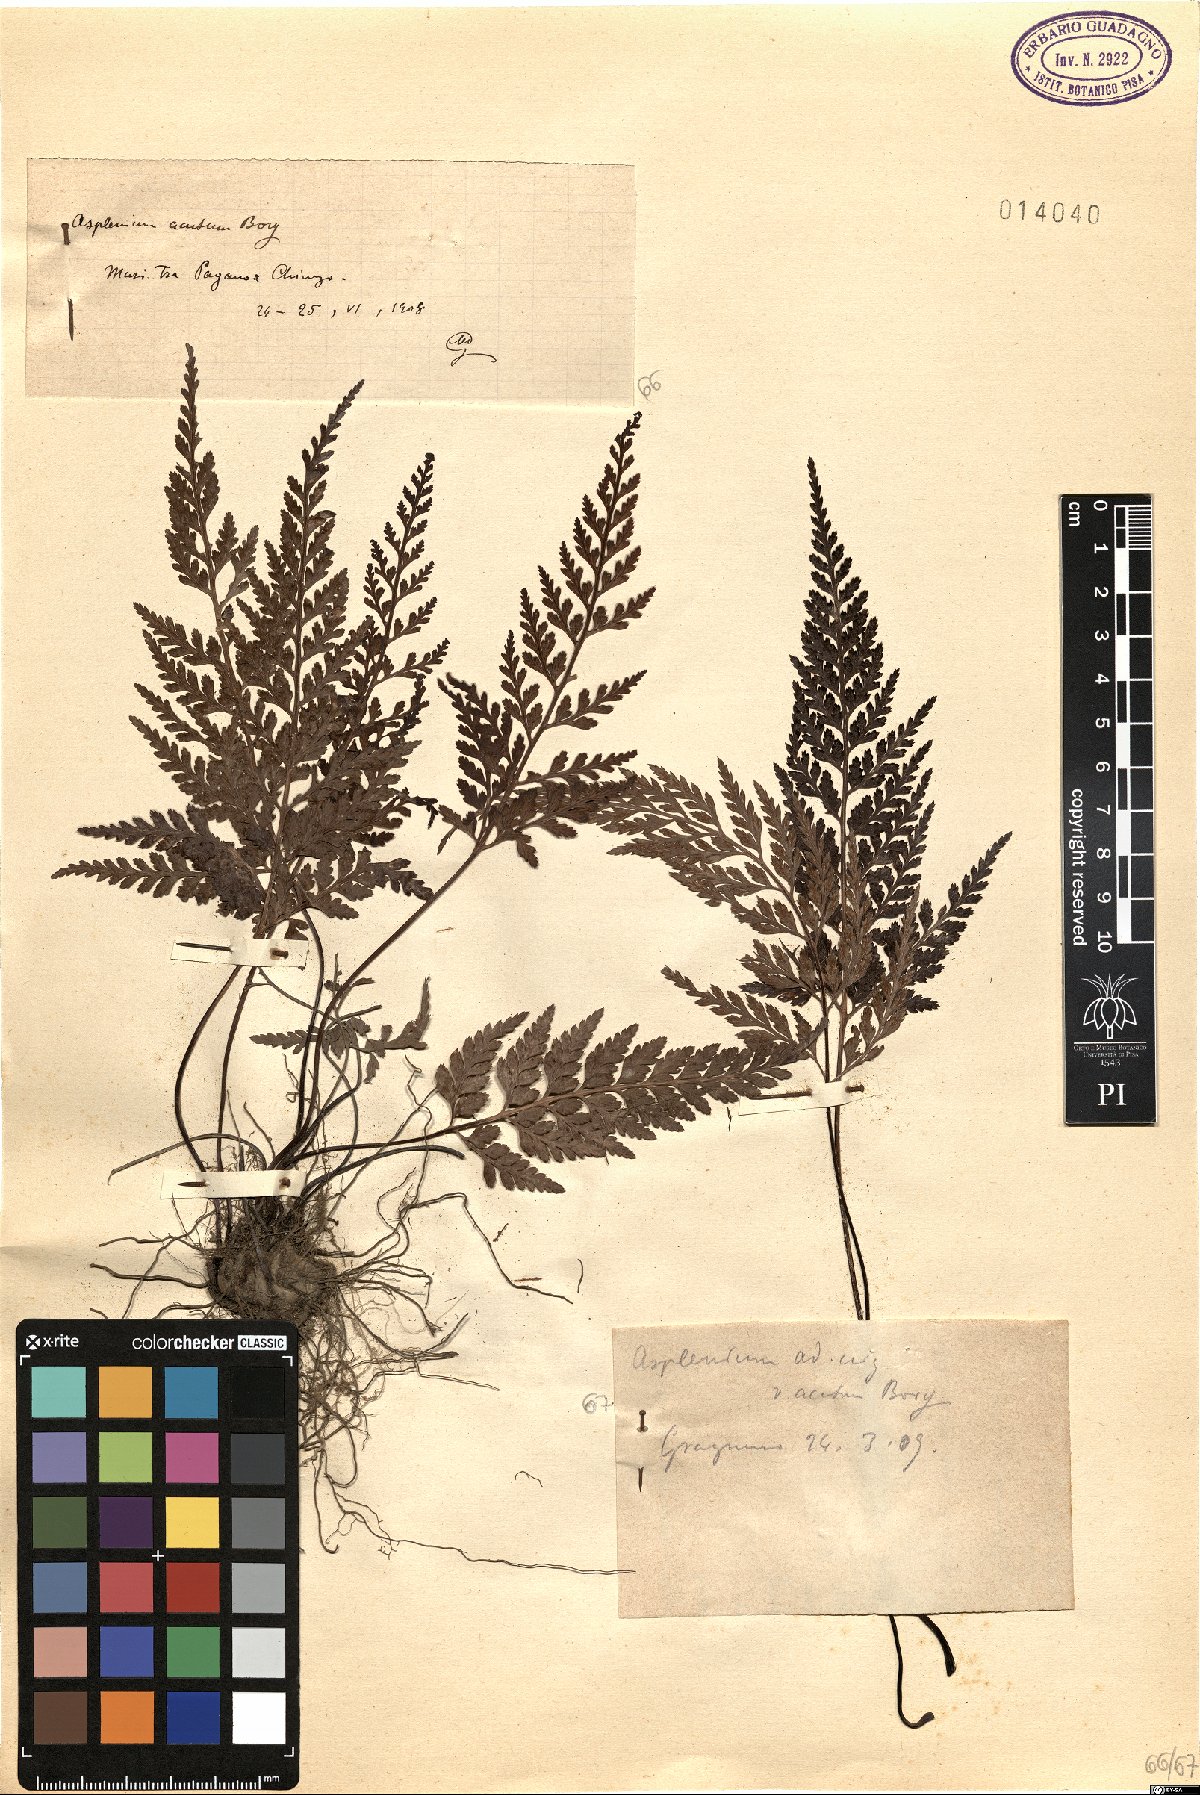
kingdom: Plantae
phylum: Tracheophyta
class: Polypodiopsida
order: Polypodiales
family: Aspleniaceae
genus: Asplenium
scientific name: Asplenium onopteris
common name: Irish spleenwort
